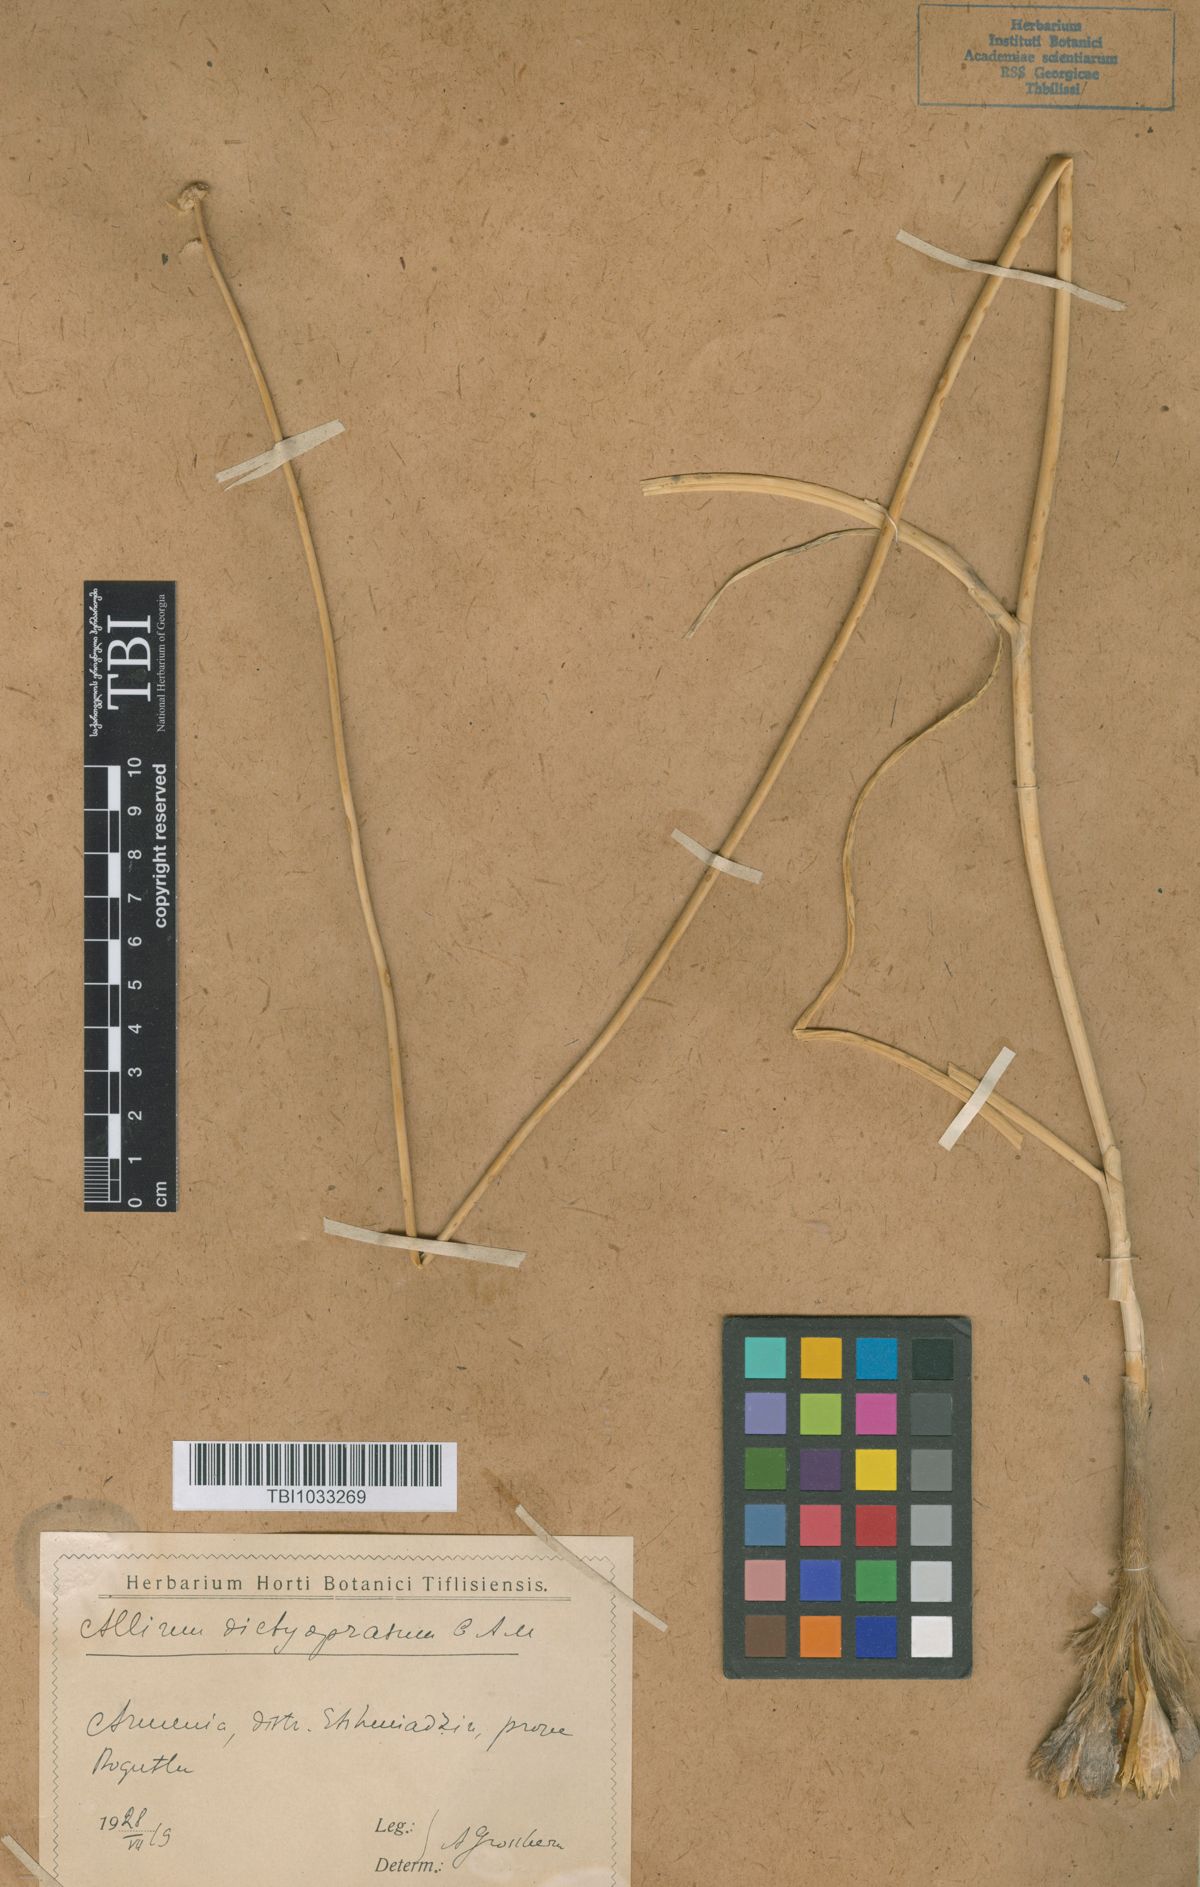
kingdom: Plantae
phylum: Tracheophyta
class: Liliopsida
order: Asparagales
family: Amaryllidaceae
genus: Allium
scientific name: Allium dictyoprasum
